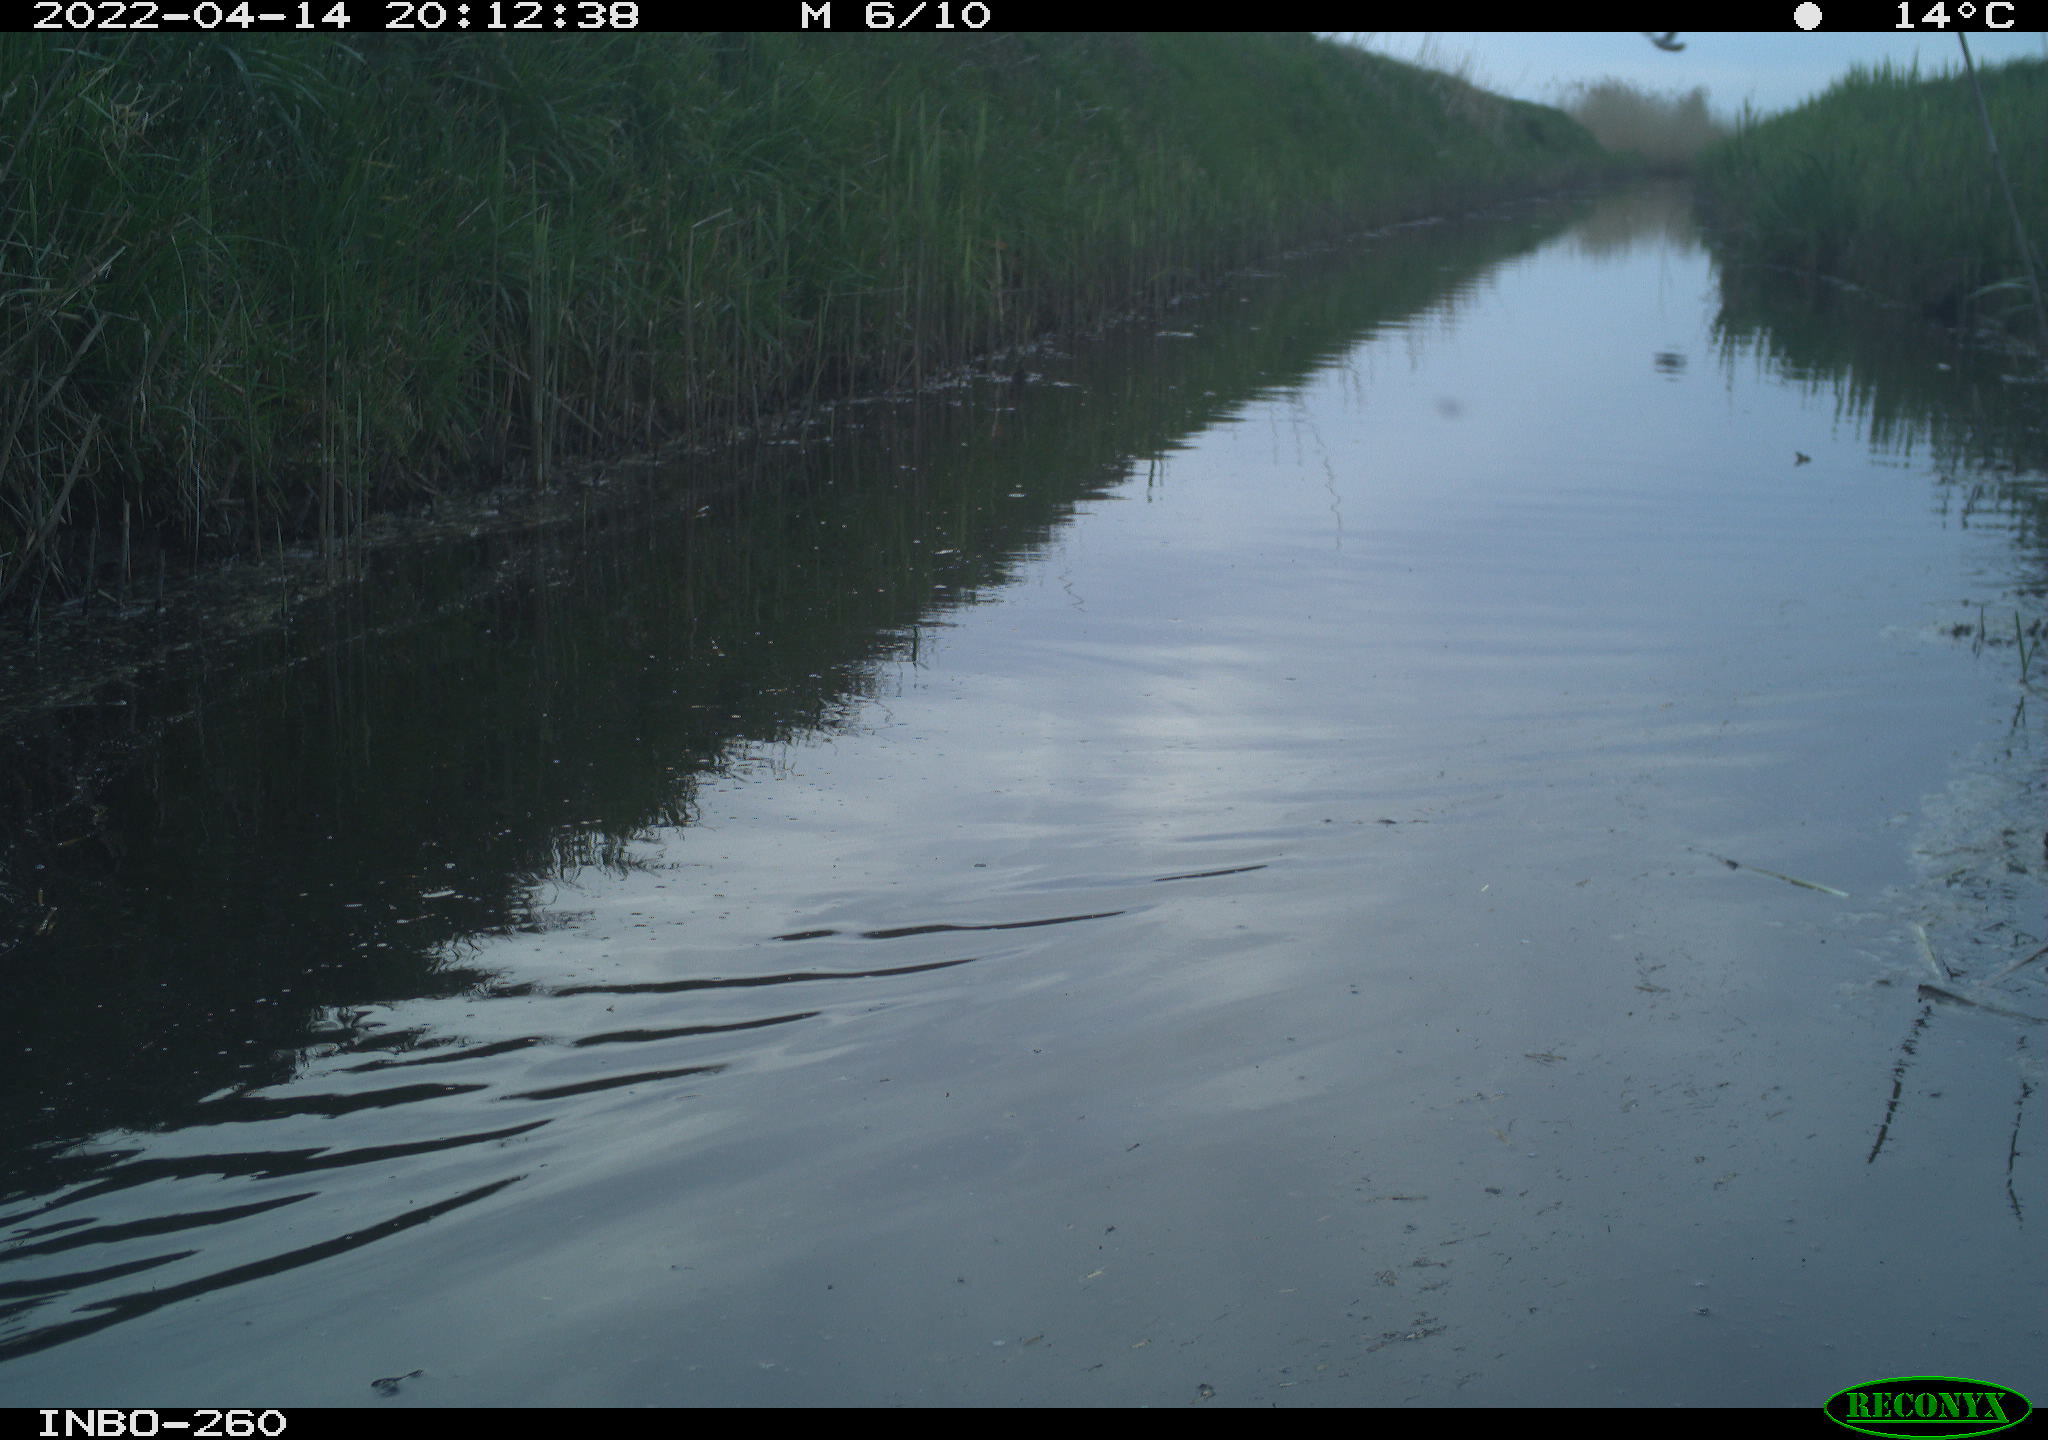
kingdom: Animalia
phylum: Chordata
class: Aves
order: Gruiformes
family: Rallidae
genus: Fulica
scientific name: Fulica atra
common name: Eurasian coot
